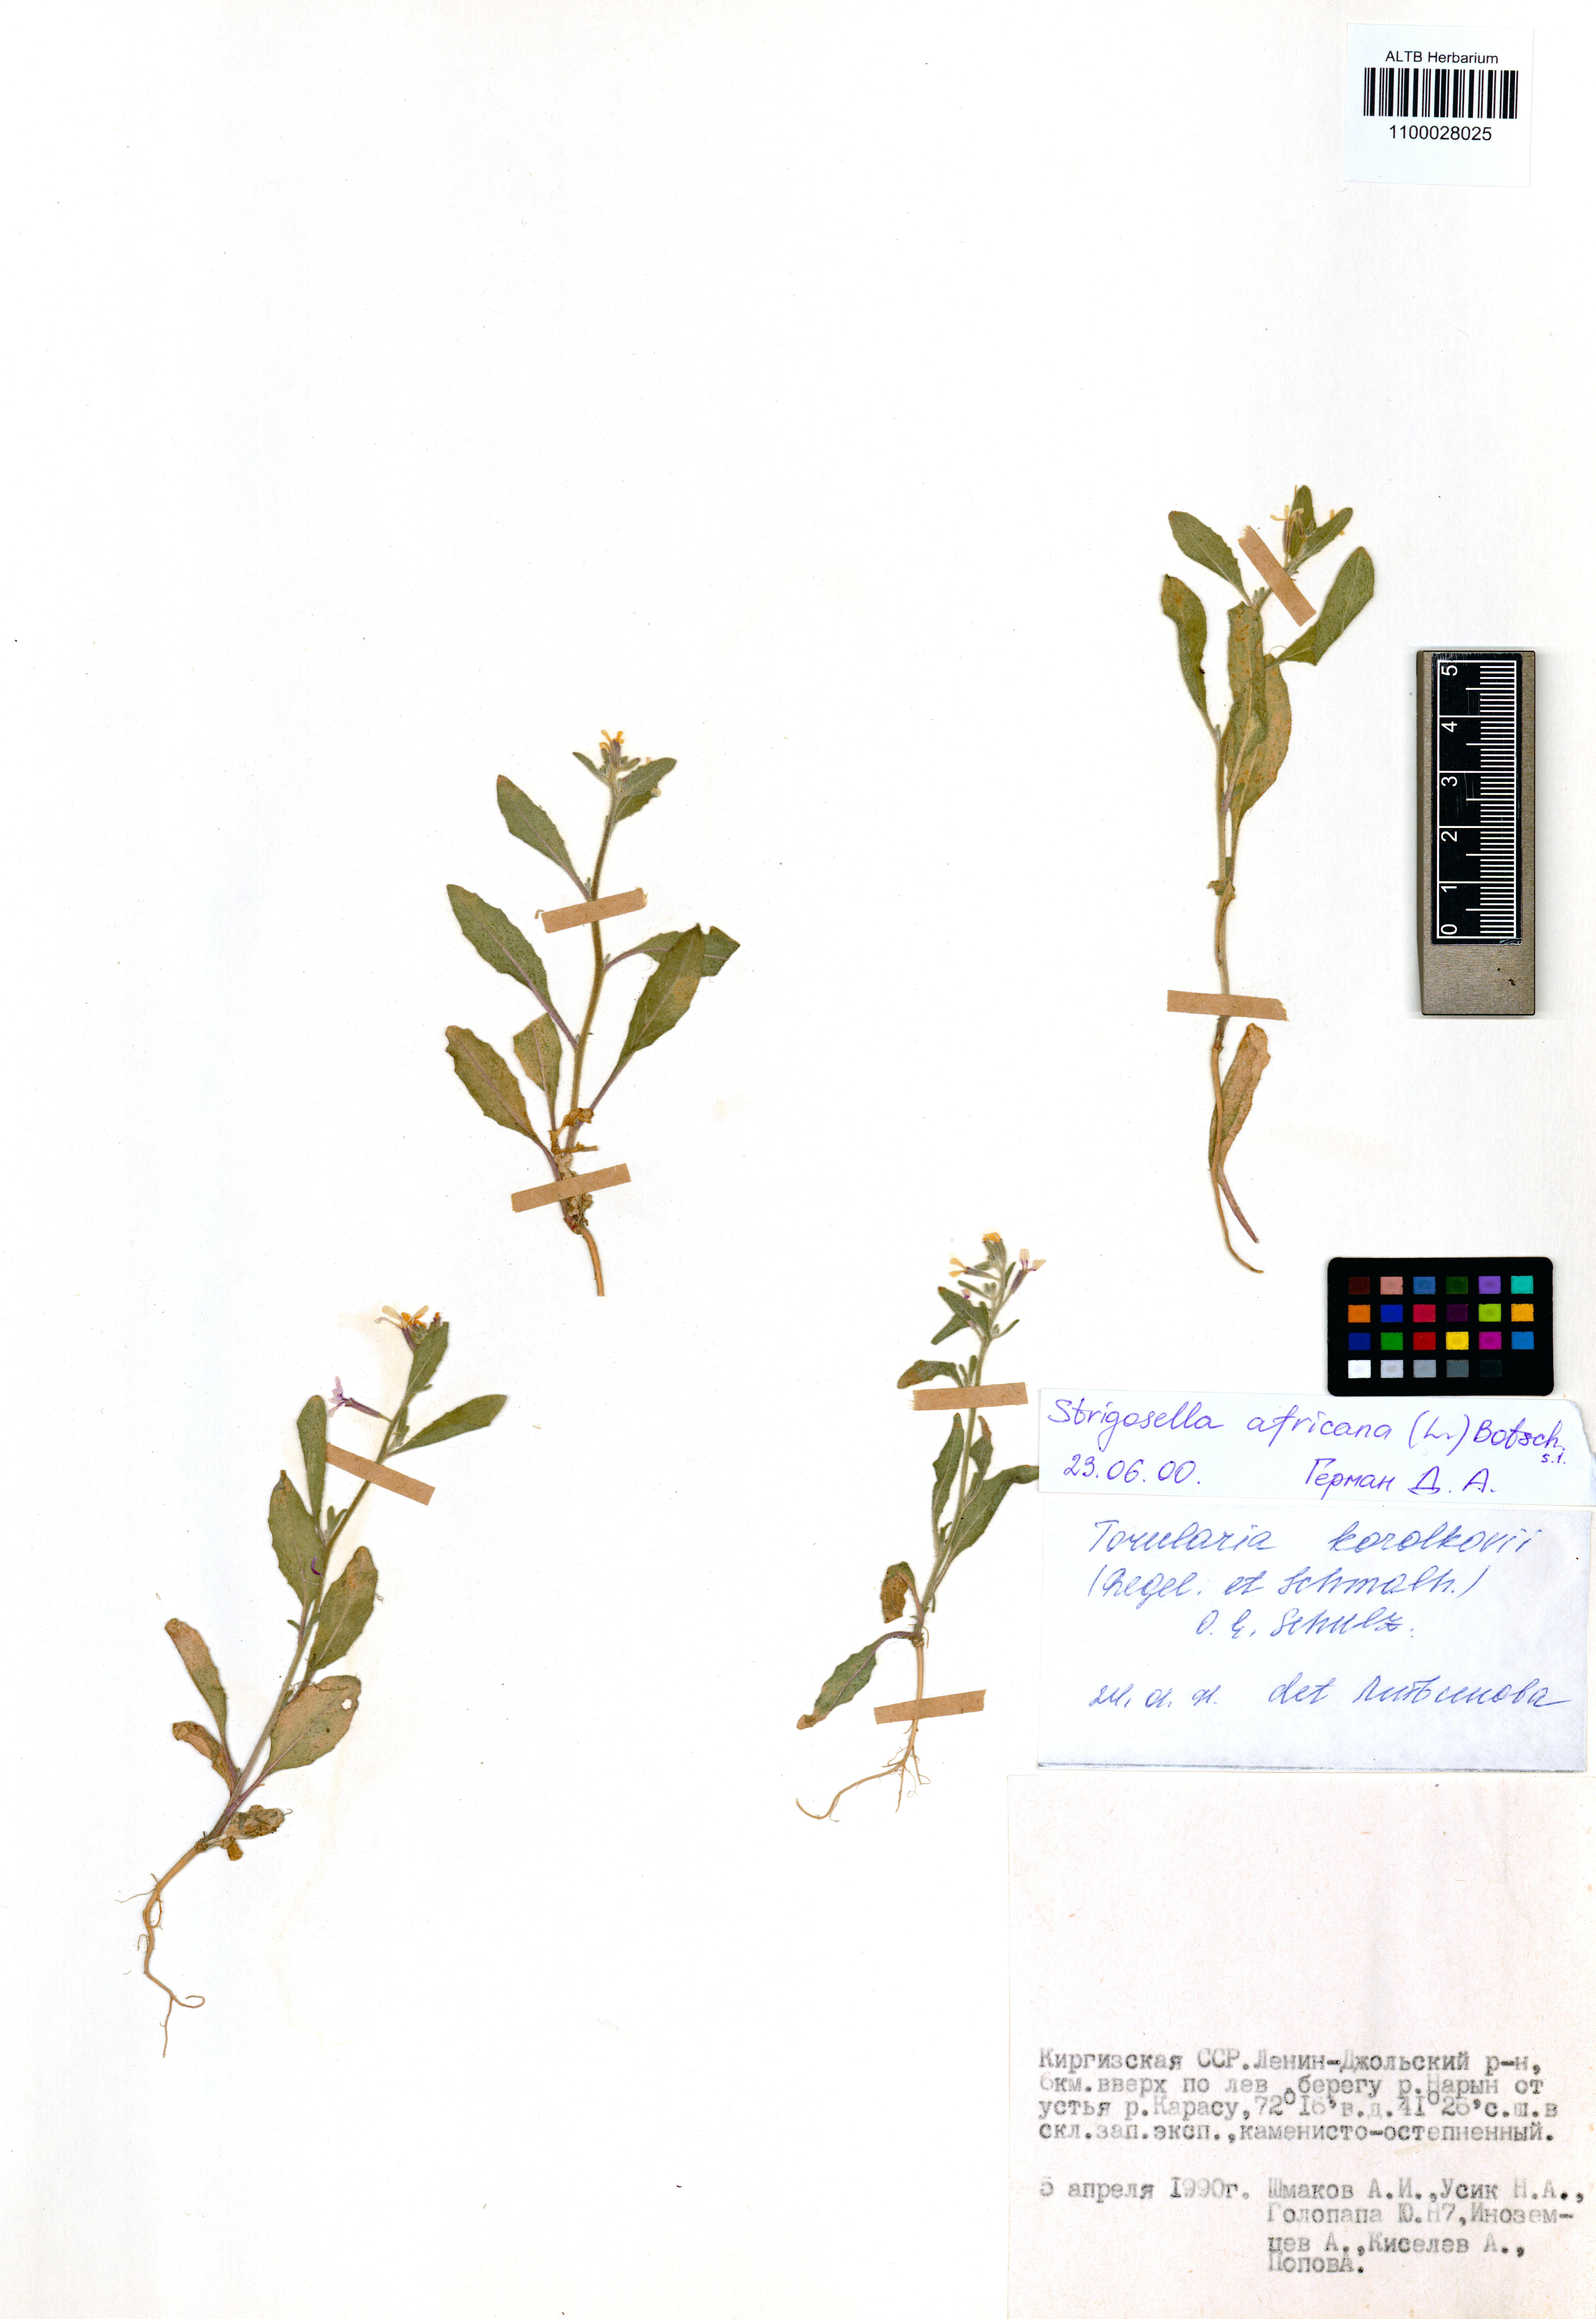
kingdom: Plantae
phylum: Tracheophyta
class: Magnoliopsida
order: Brassicales
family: Brassicaceae
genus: Strigosella
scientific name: Strigosella africana
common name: African mustard
